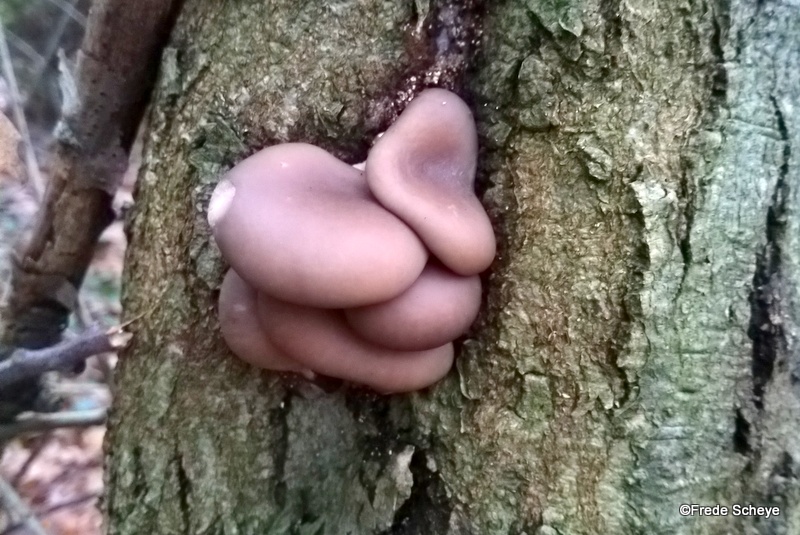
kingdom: Fungi
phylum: Basidiomycota
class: Agaricomycetes
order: Agaricales
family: Pleurotaceae
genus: Pleurotus
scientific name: Pleurotus ostreatus
